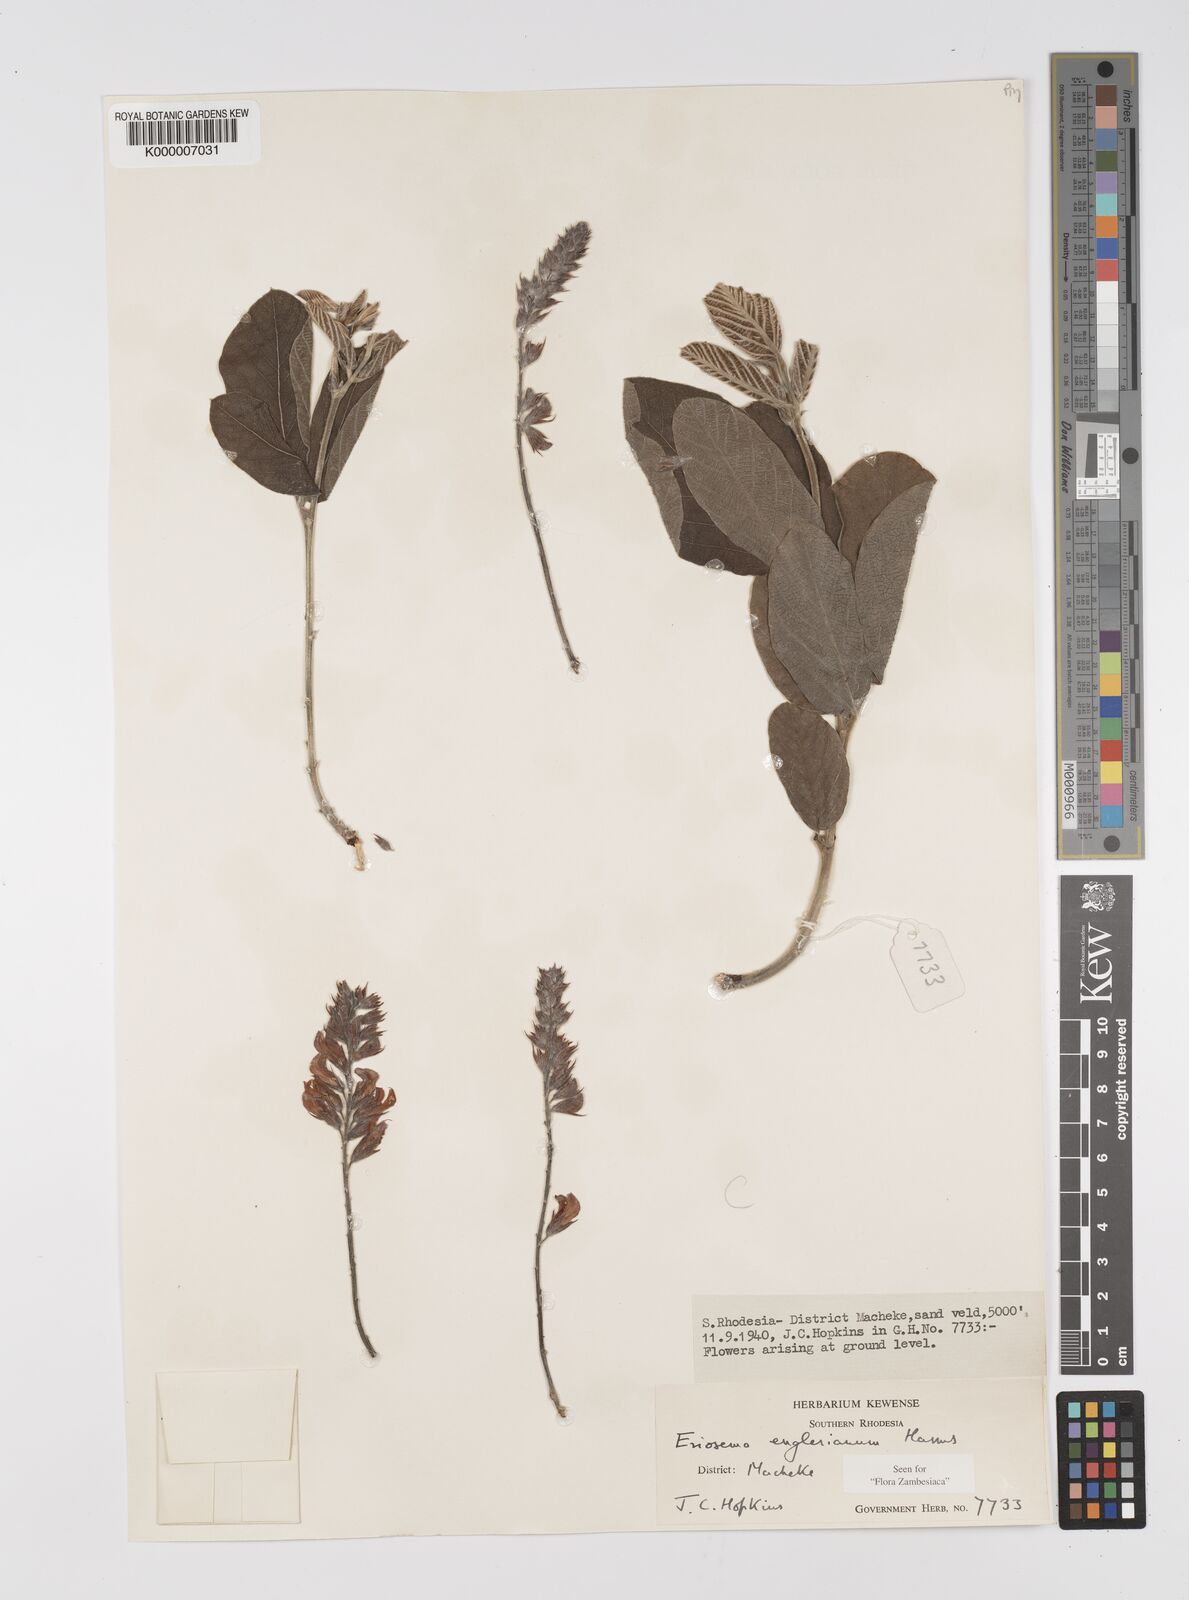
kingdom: Plantae
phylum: Tracheophyta
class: Magnoliopsida
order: Fabales
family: Fabaceae
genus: Eriosema
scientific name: Eriosema englerianum
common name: Blue bush
